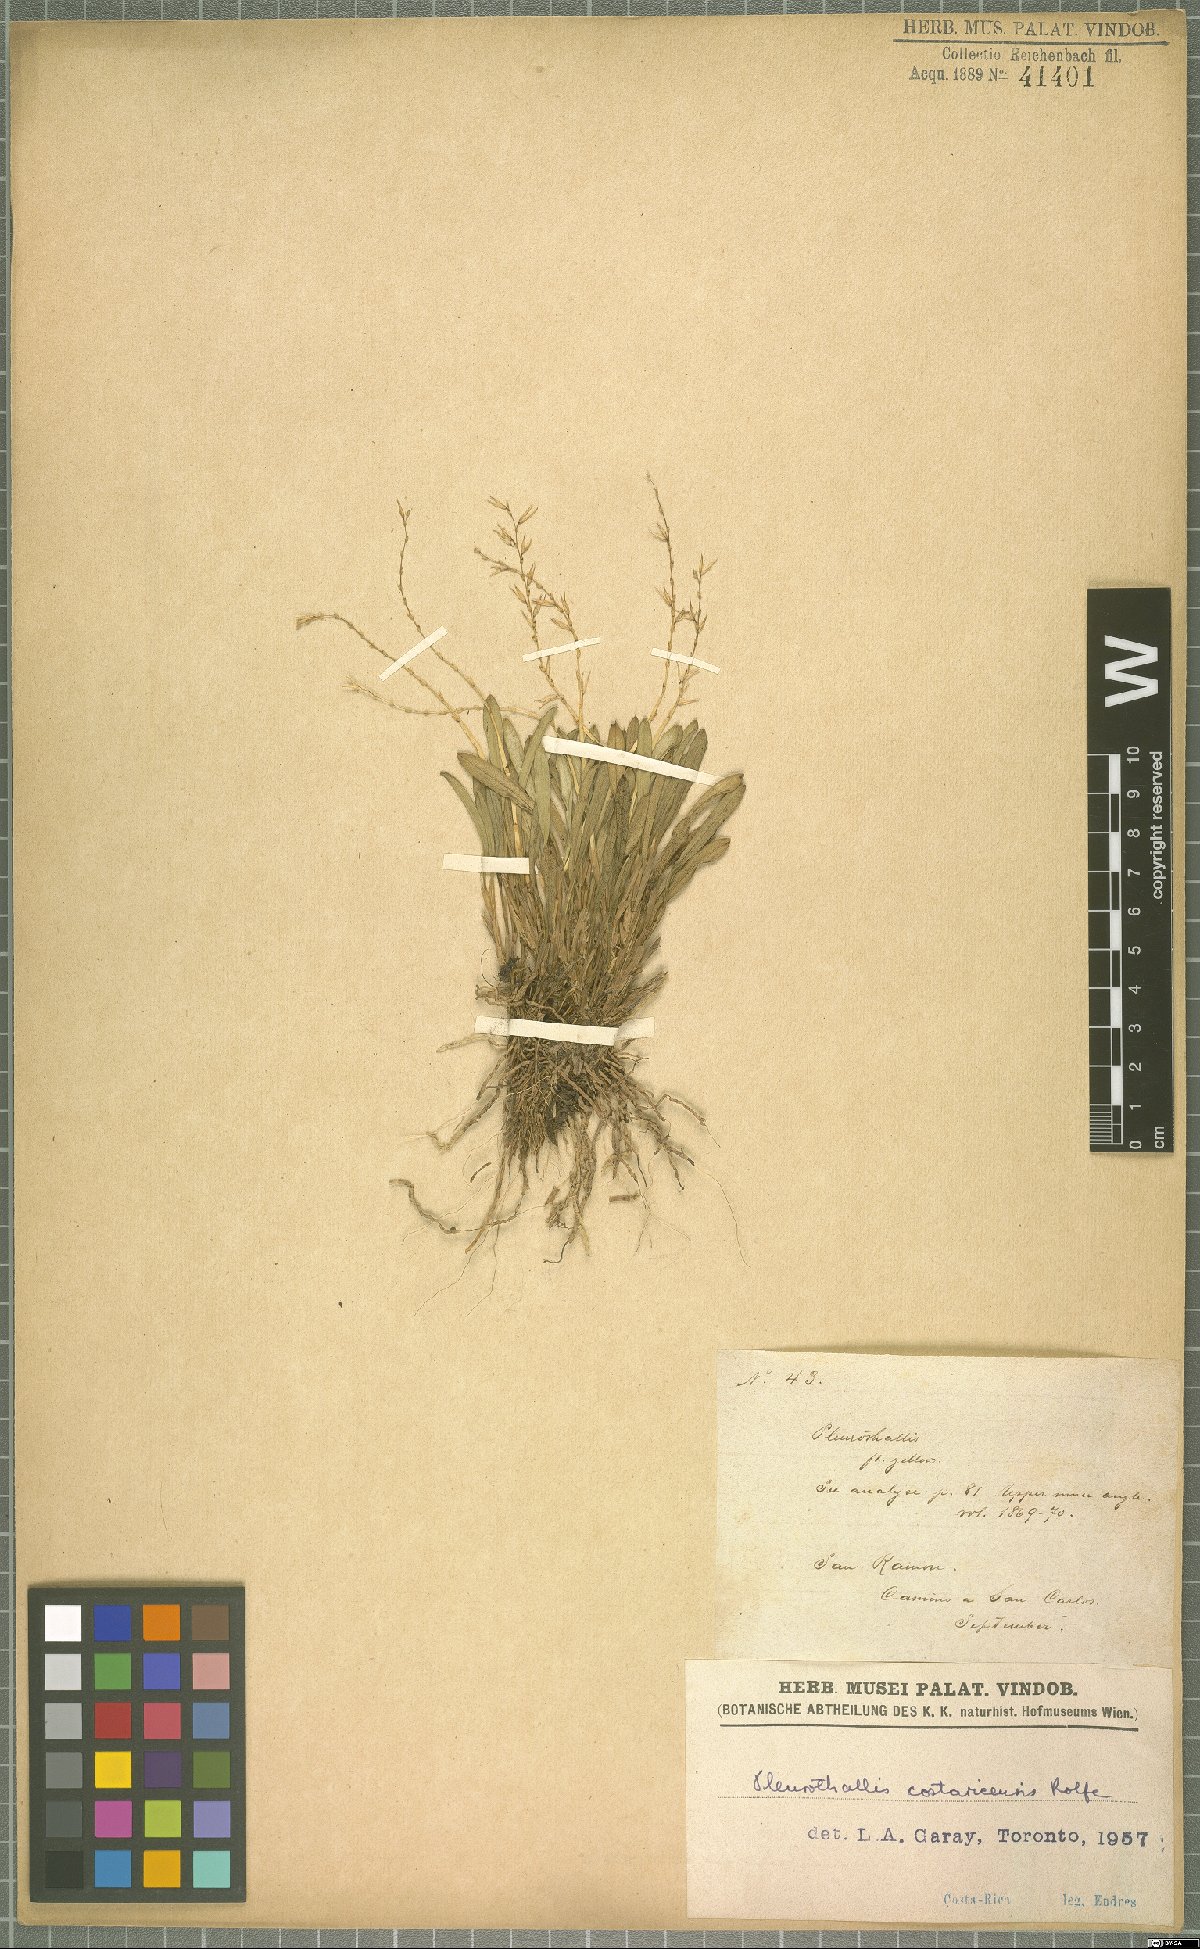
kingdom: Plantae
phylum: Tracheophyta
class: Liliopsida
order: Asparagales
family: Orchidaceae
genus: Specklinia
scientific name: Specklinia costaricensis
